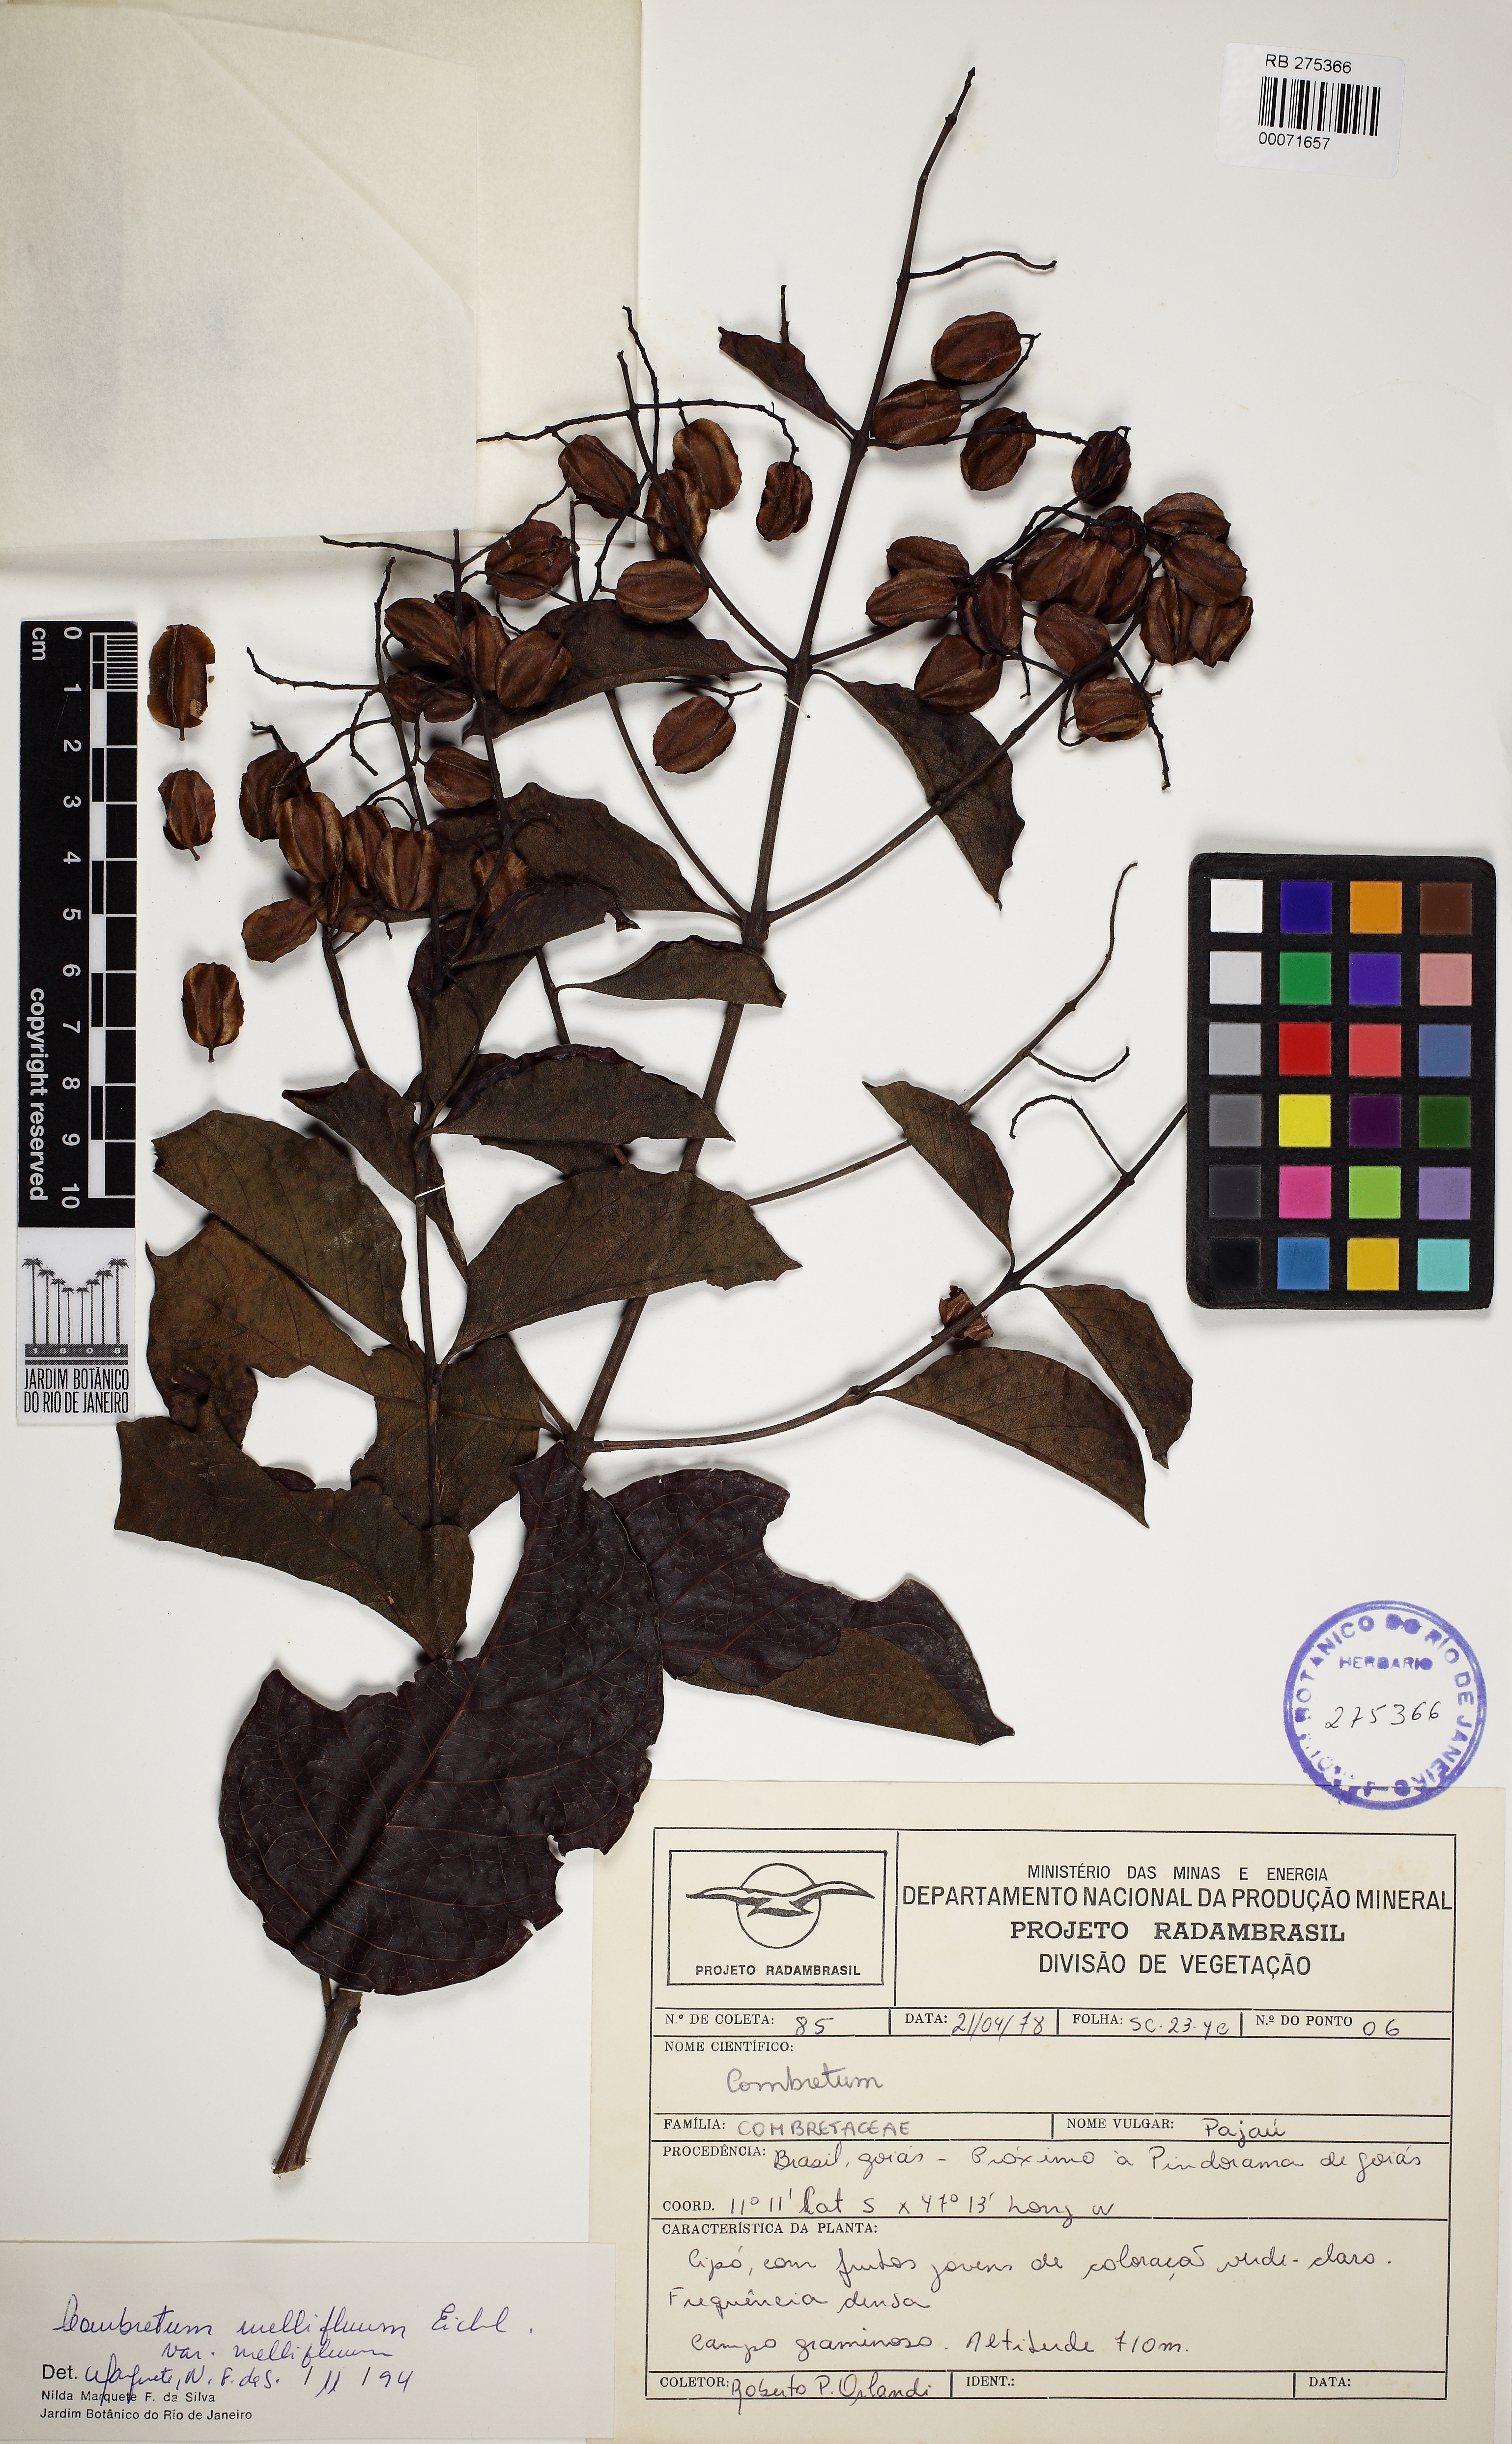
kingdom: Plantae
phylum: Tracheophyta
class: Magnoliopsida
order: Myrtales
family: Combretaceae
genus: Combretum
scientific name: Combretum mellifluum
